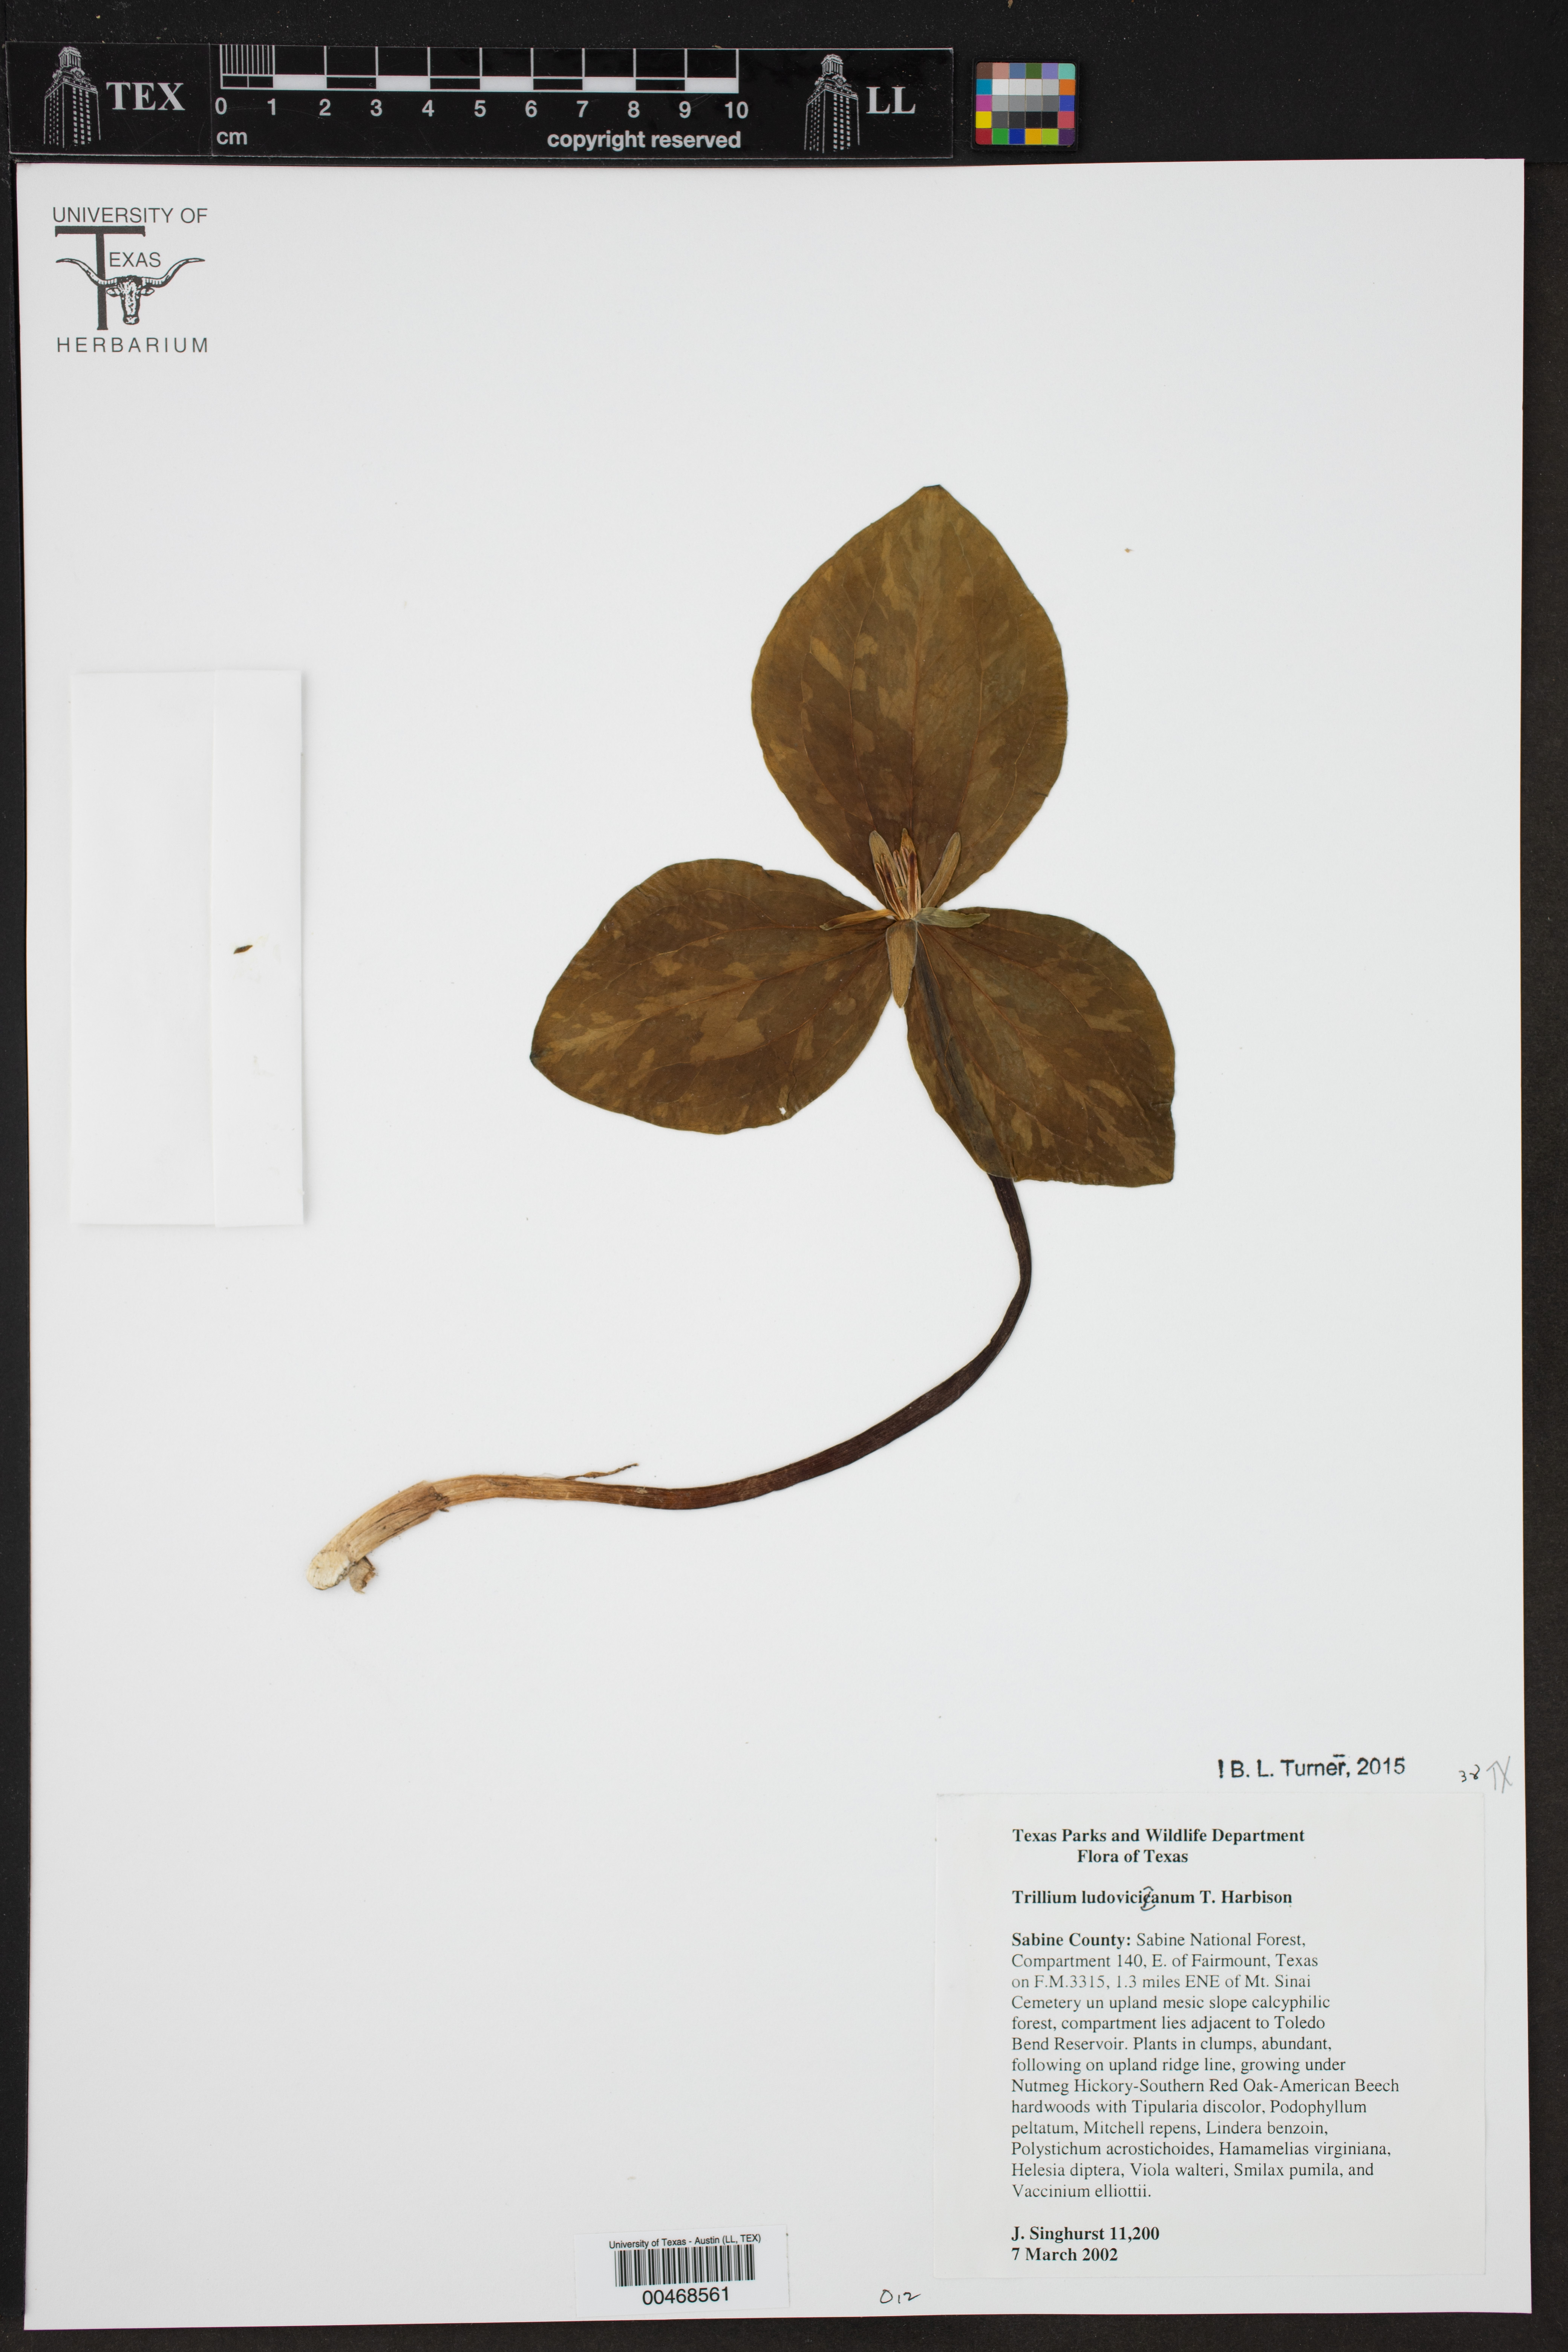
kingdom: Plantae
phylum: Tracheophyta
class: Liliopsida
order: Liliales
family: Melanthiaceae
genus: Trillium
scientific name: Trillium ludovicianum
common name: Louisiana toadshade
